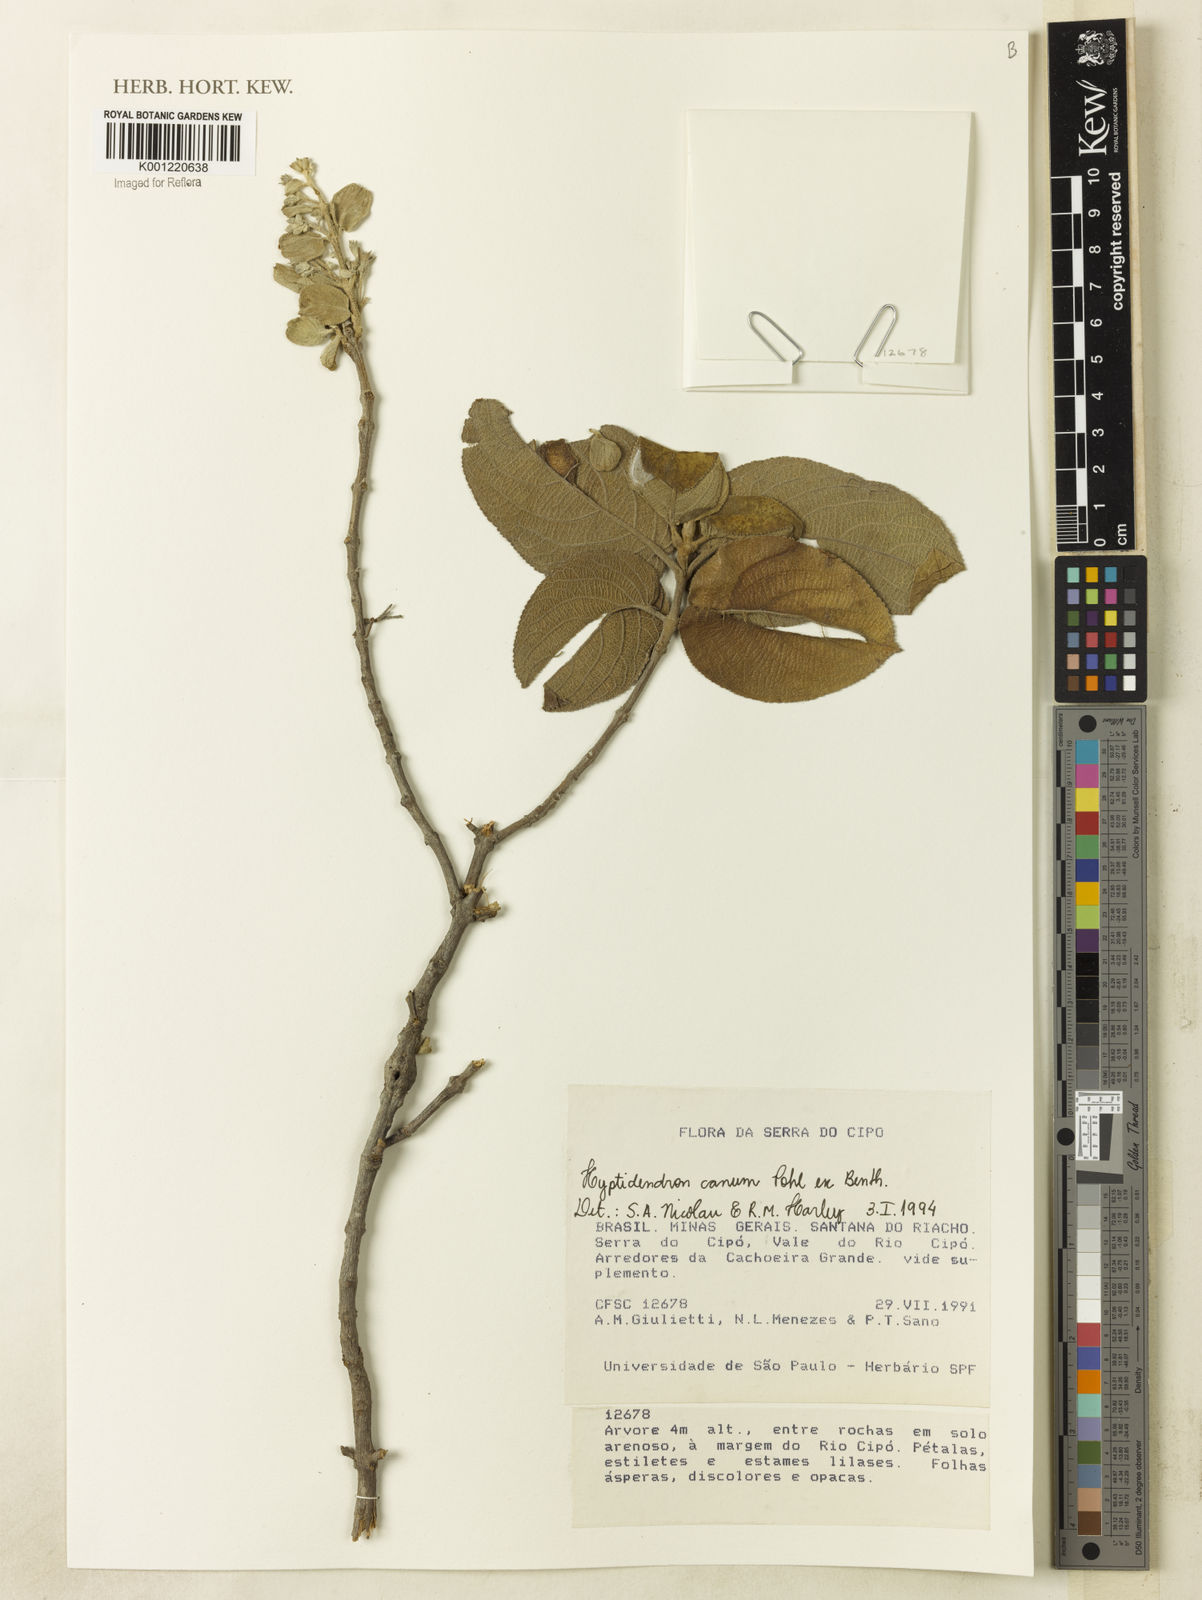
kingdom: Plantae
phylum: Tracheophyta
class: Magnoliopsida
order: Lamiales
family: Lamiaceae
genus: Hyptidendron
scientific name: Hyptidendron canum
